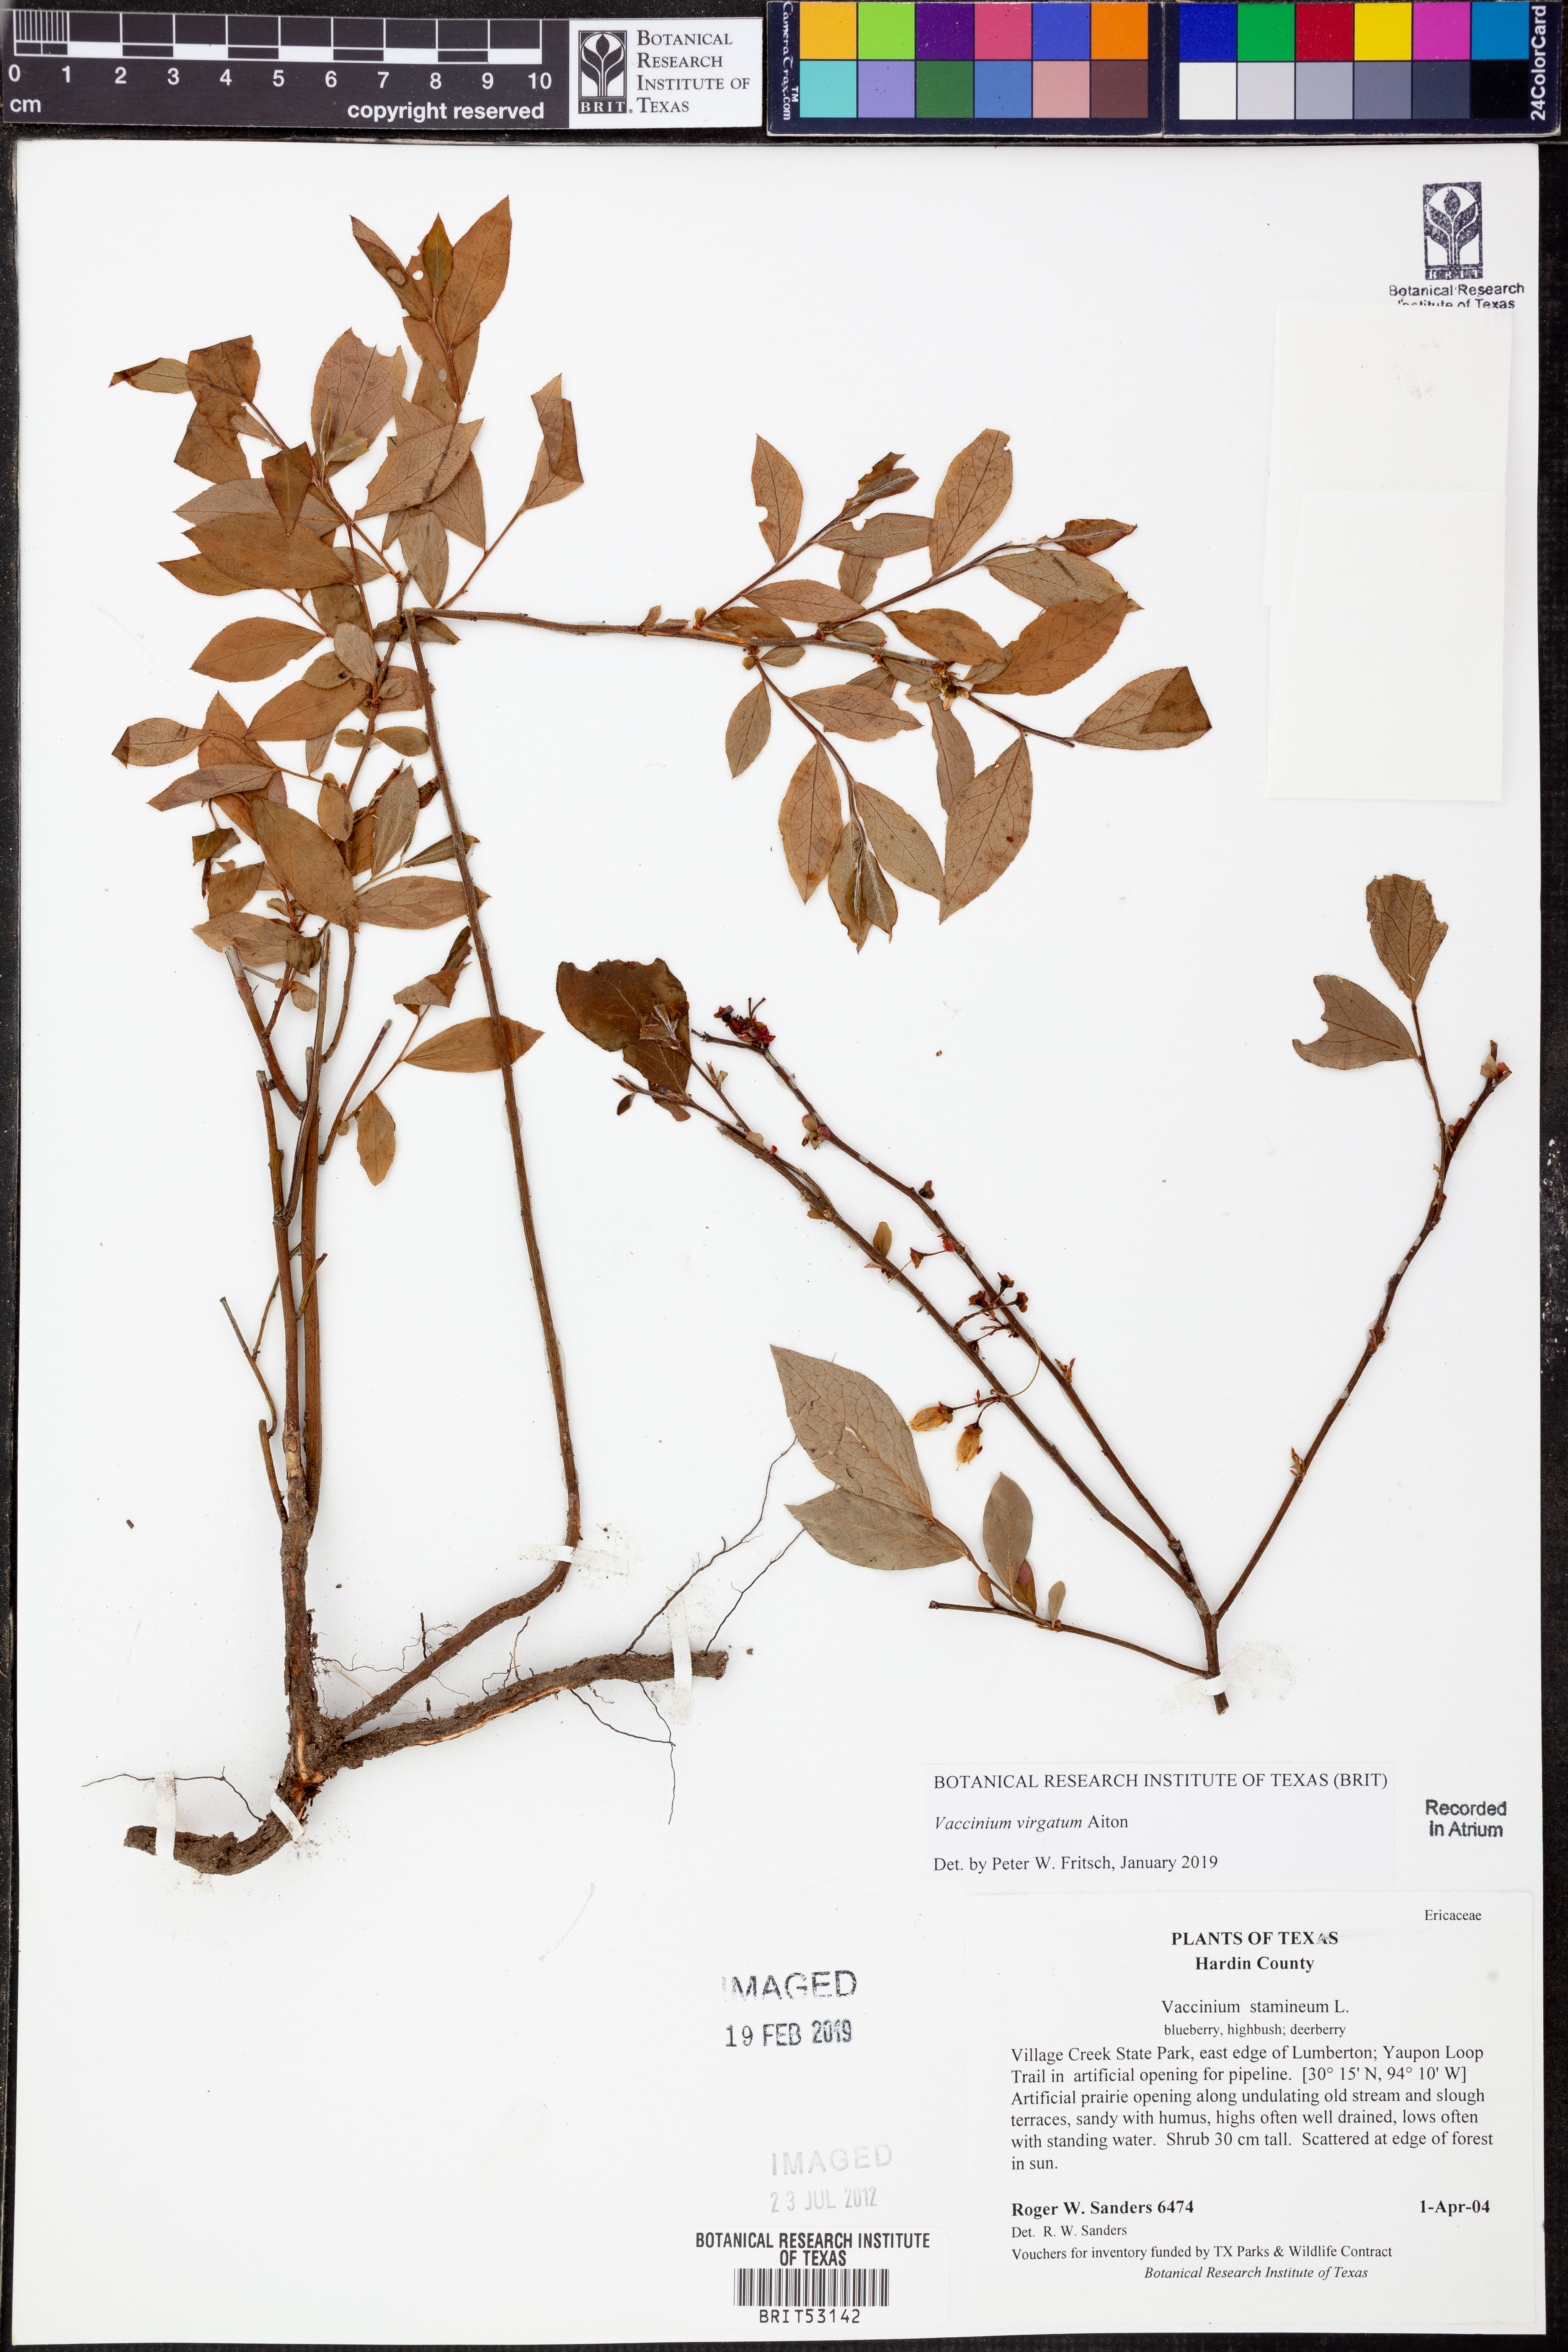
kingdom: Plantae
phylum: Tracheophyta
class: Magnoliopsida
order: Ericales
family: Ericaceae
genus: Vaccinium
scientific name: Vaccinium corymbosum
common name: Blueberry
